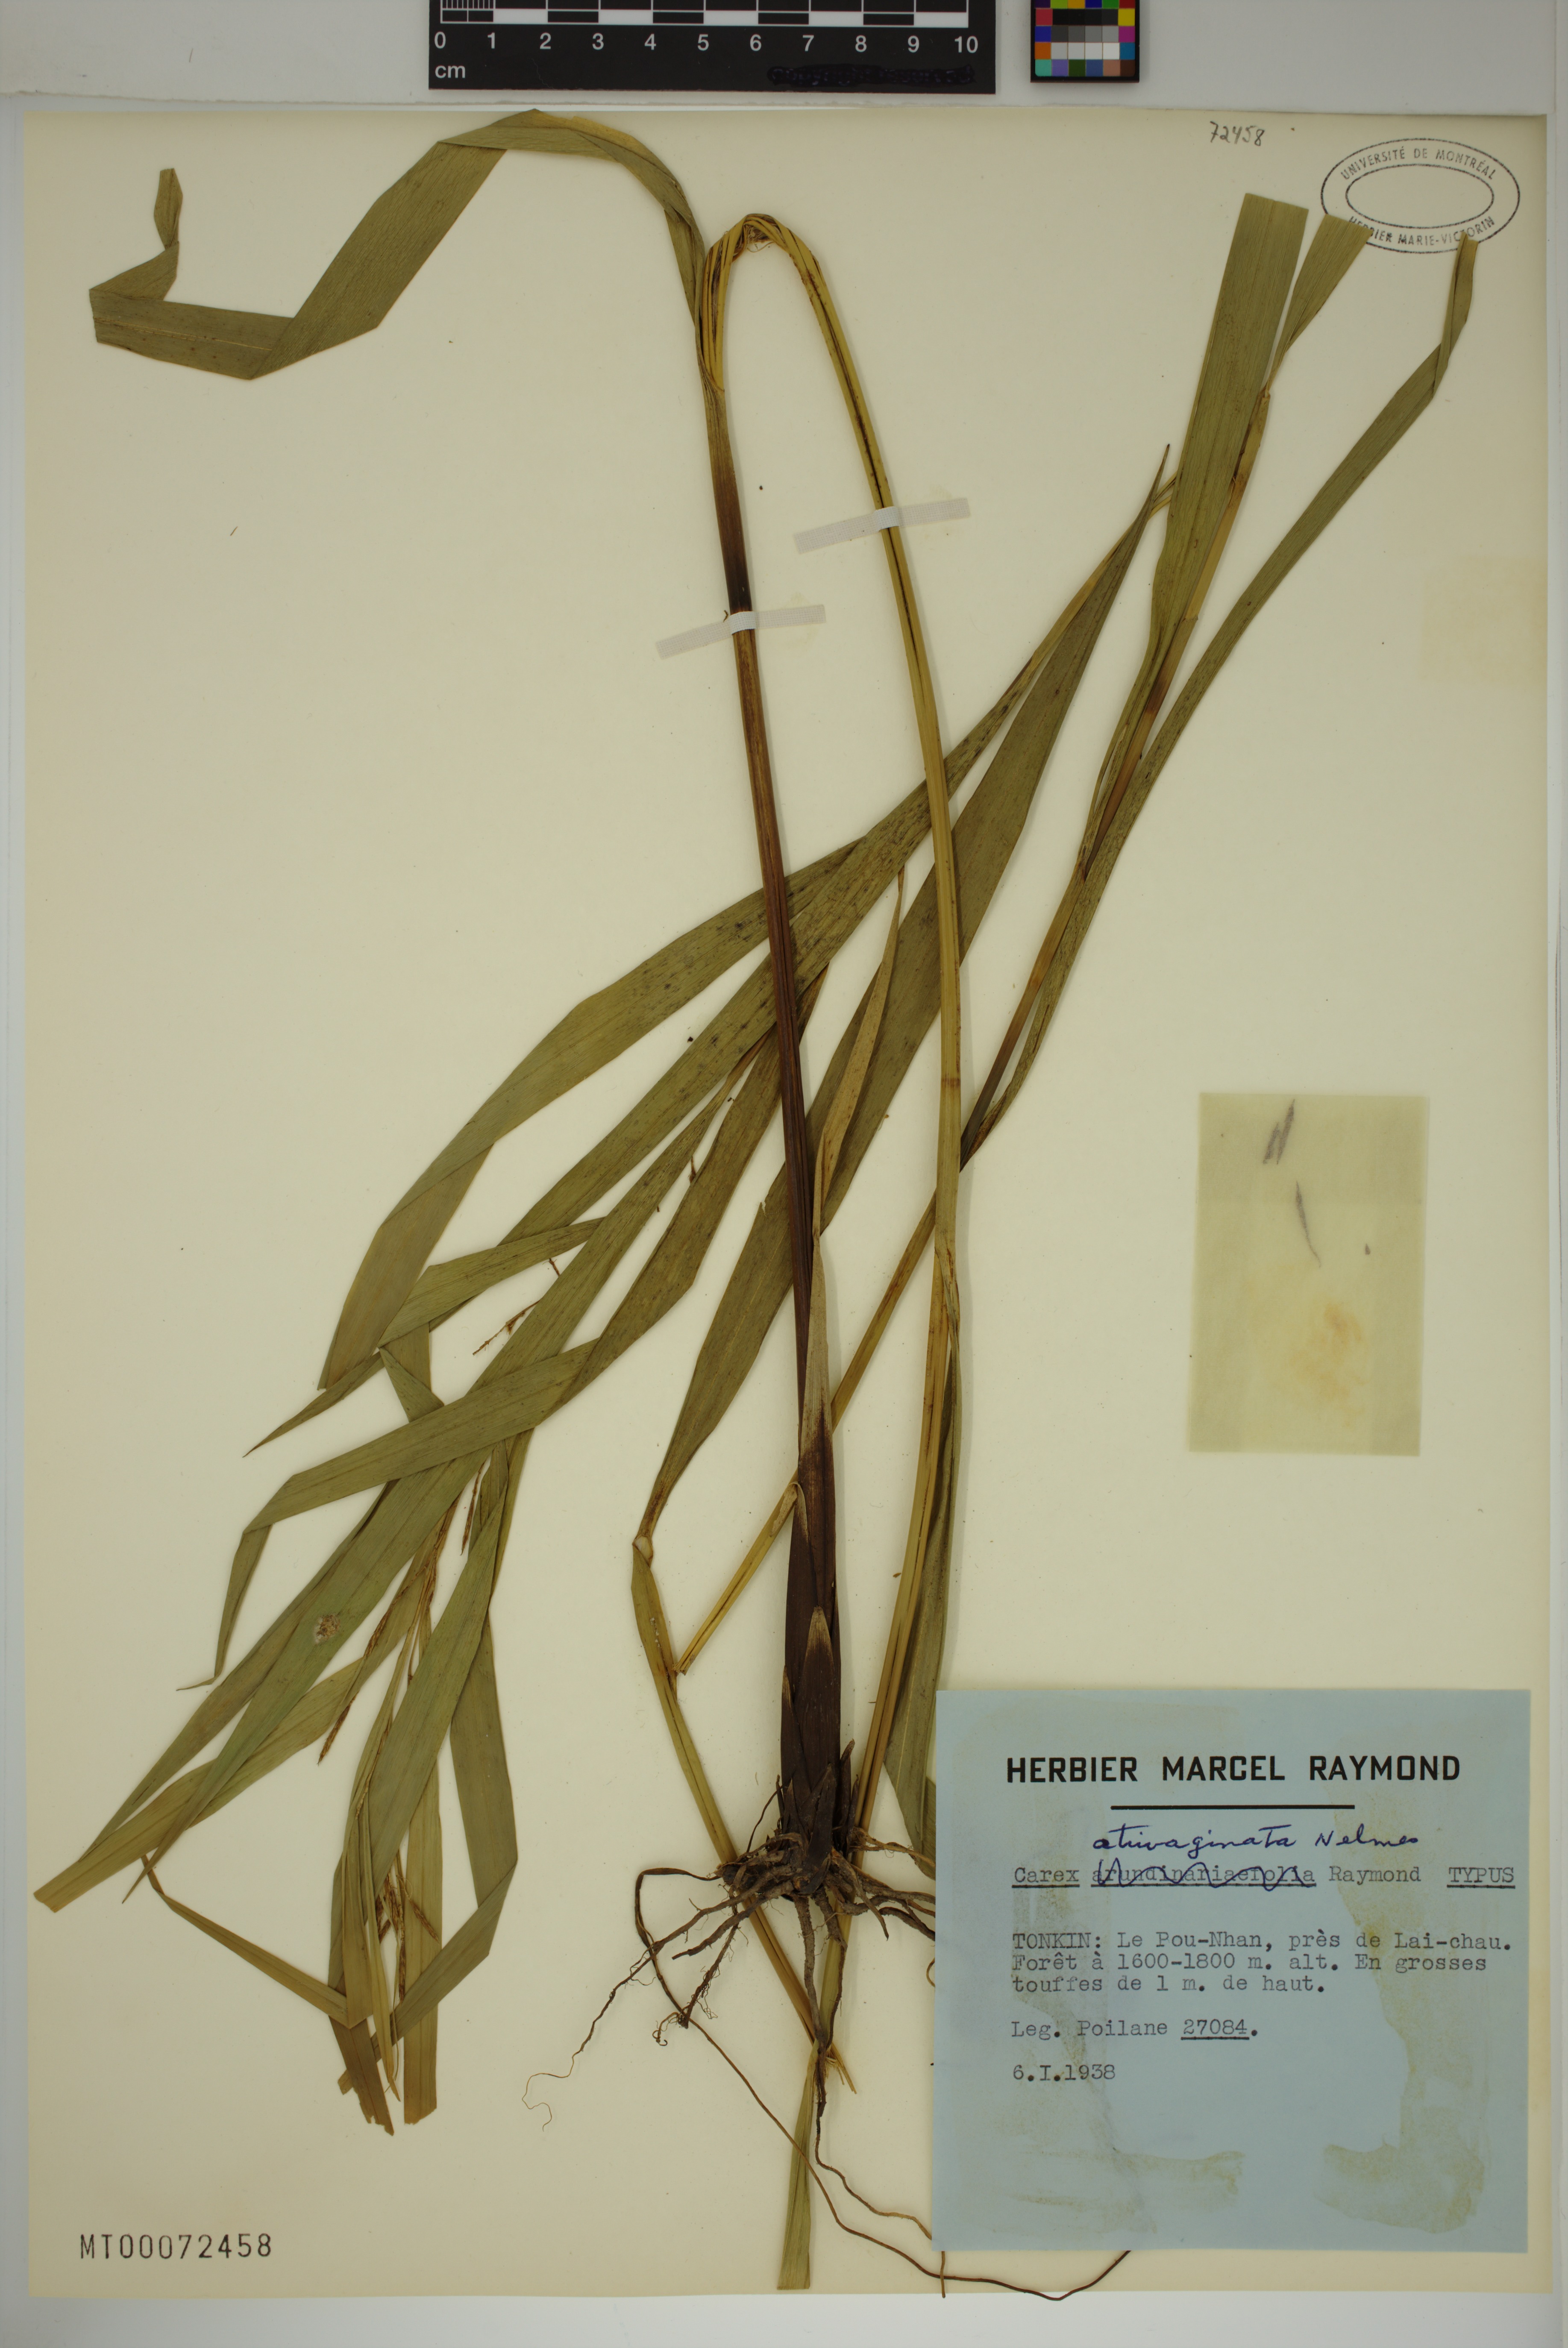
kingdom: Plantae
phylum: Tracheophyta
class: Liliopsida
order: Poales
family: Cyperaceae
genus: Carex
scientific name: Carex atrivaginata
